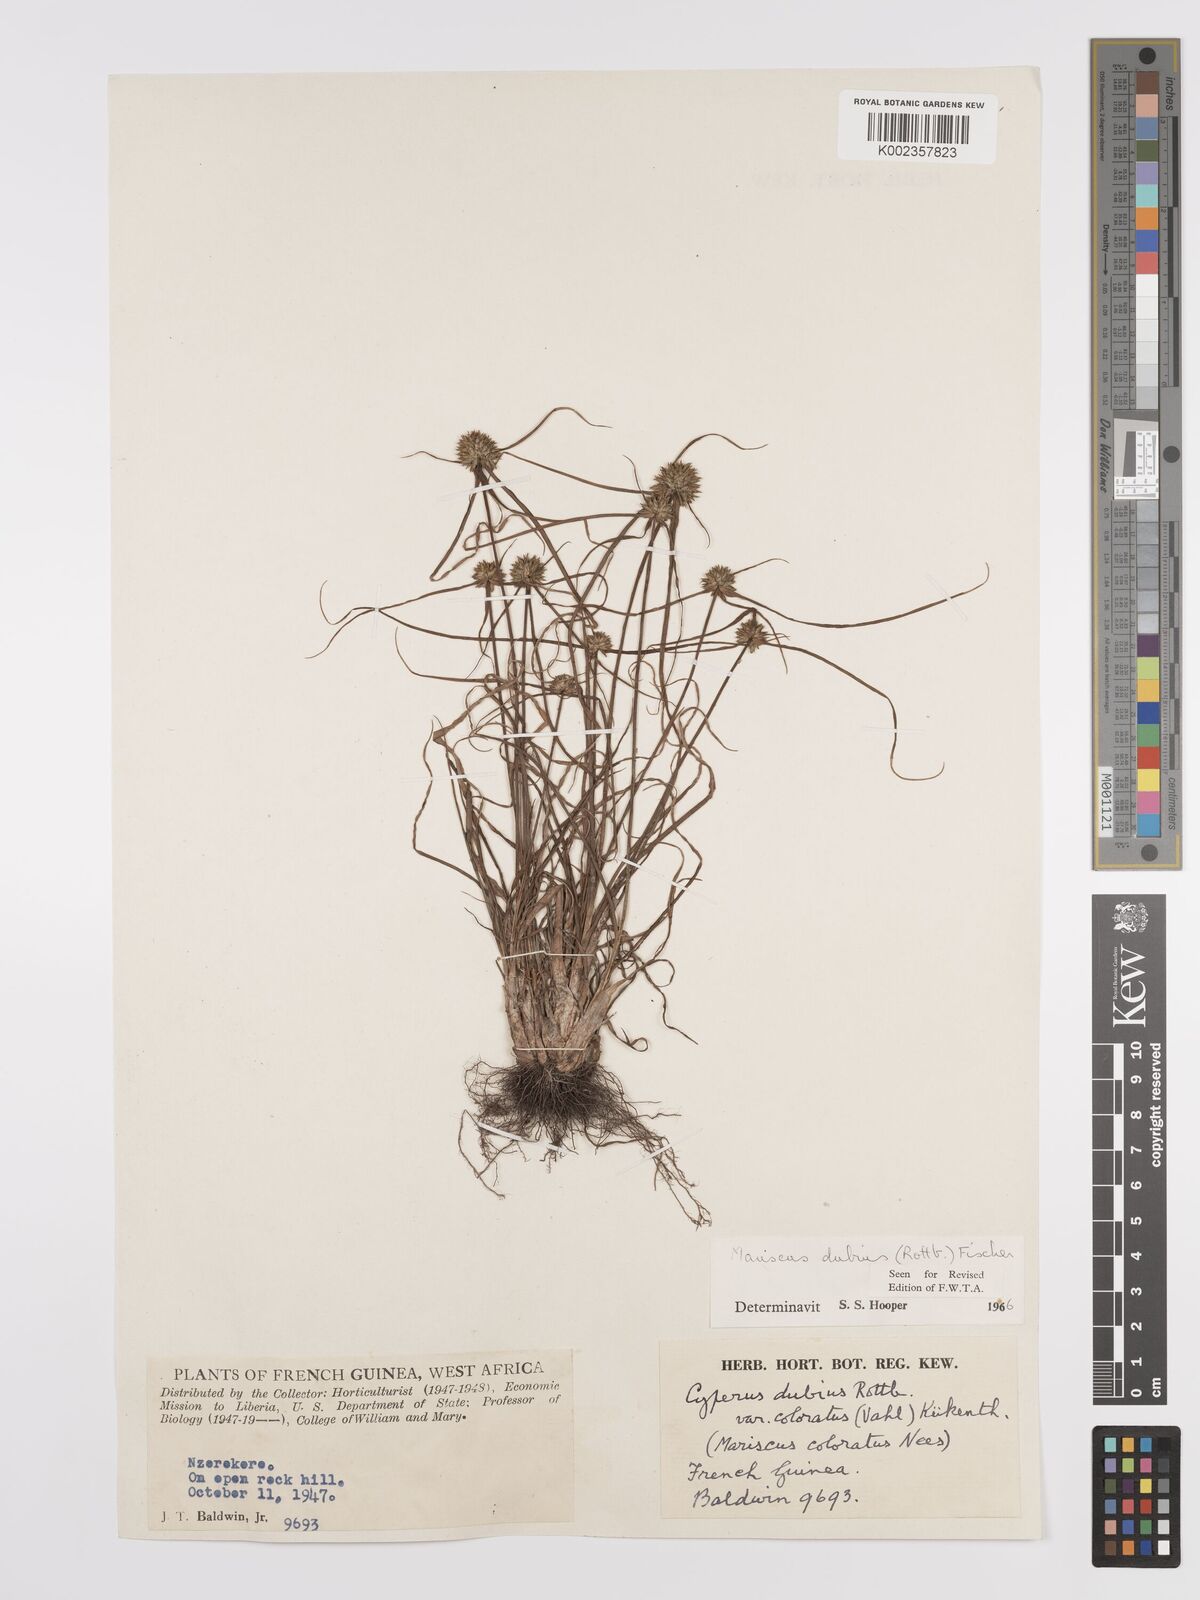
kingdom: Plantae
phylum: Tracheophyta
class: Liliopsida
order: Poales
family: Cyperaceae
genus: Cyperus
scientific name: Cyperus dubius
